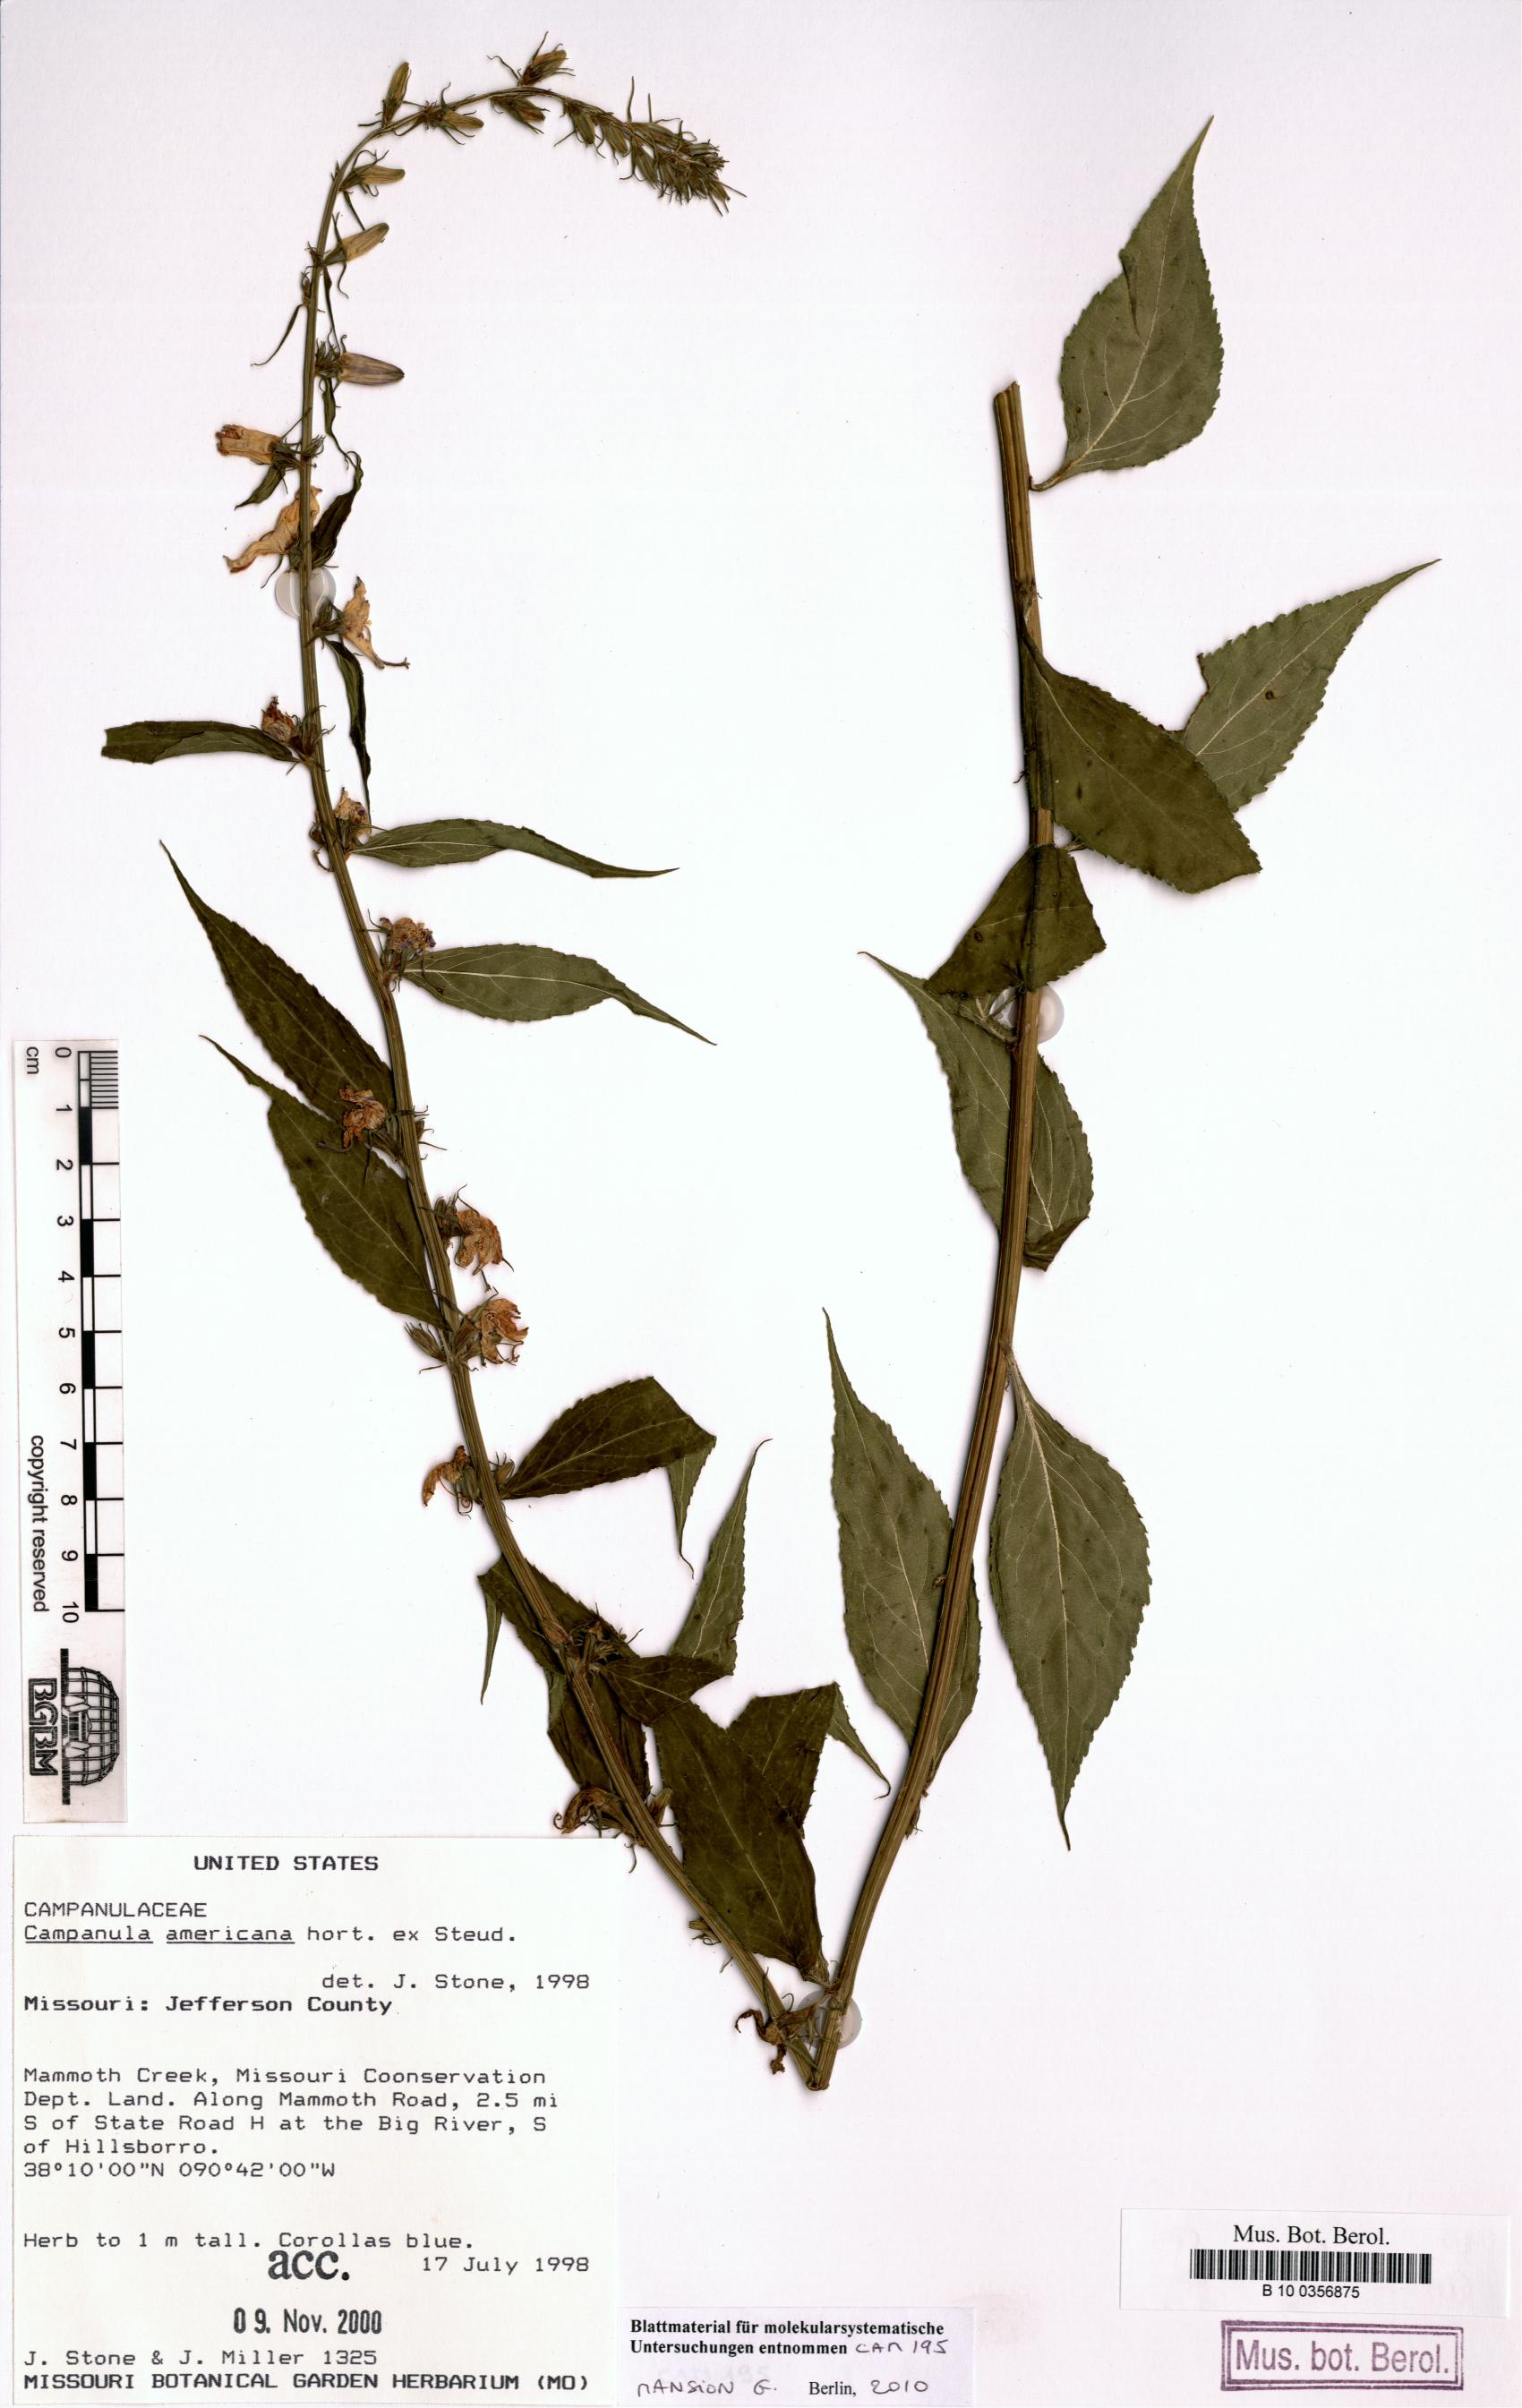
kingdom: Plantae
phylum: Tracheophyta
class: Magnoliopsida
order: Asterales
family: Campanulaceae
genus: Campanula
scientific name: Campanula americana
